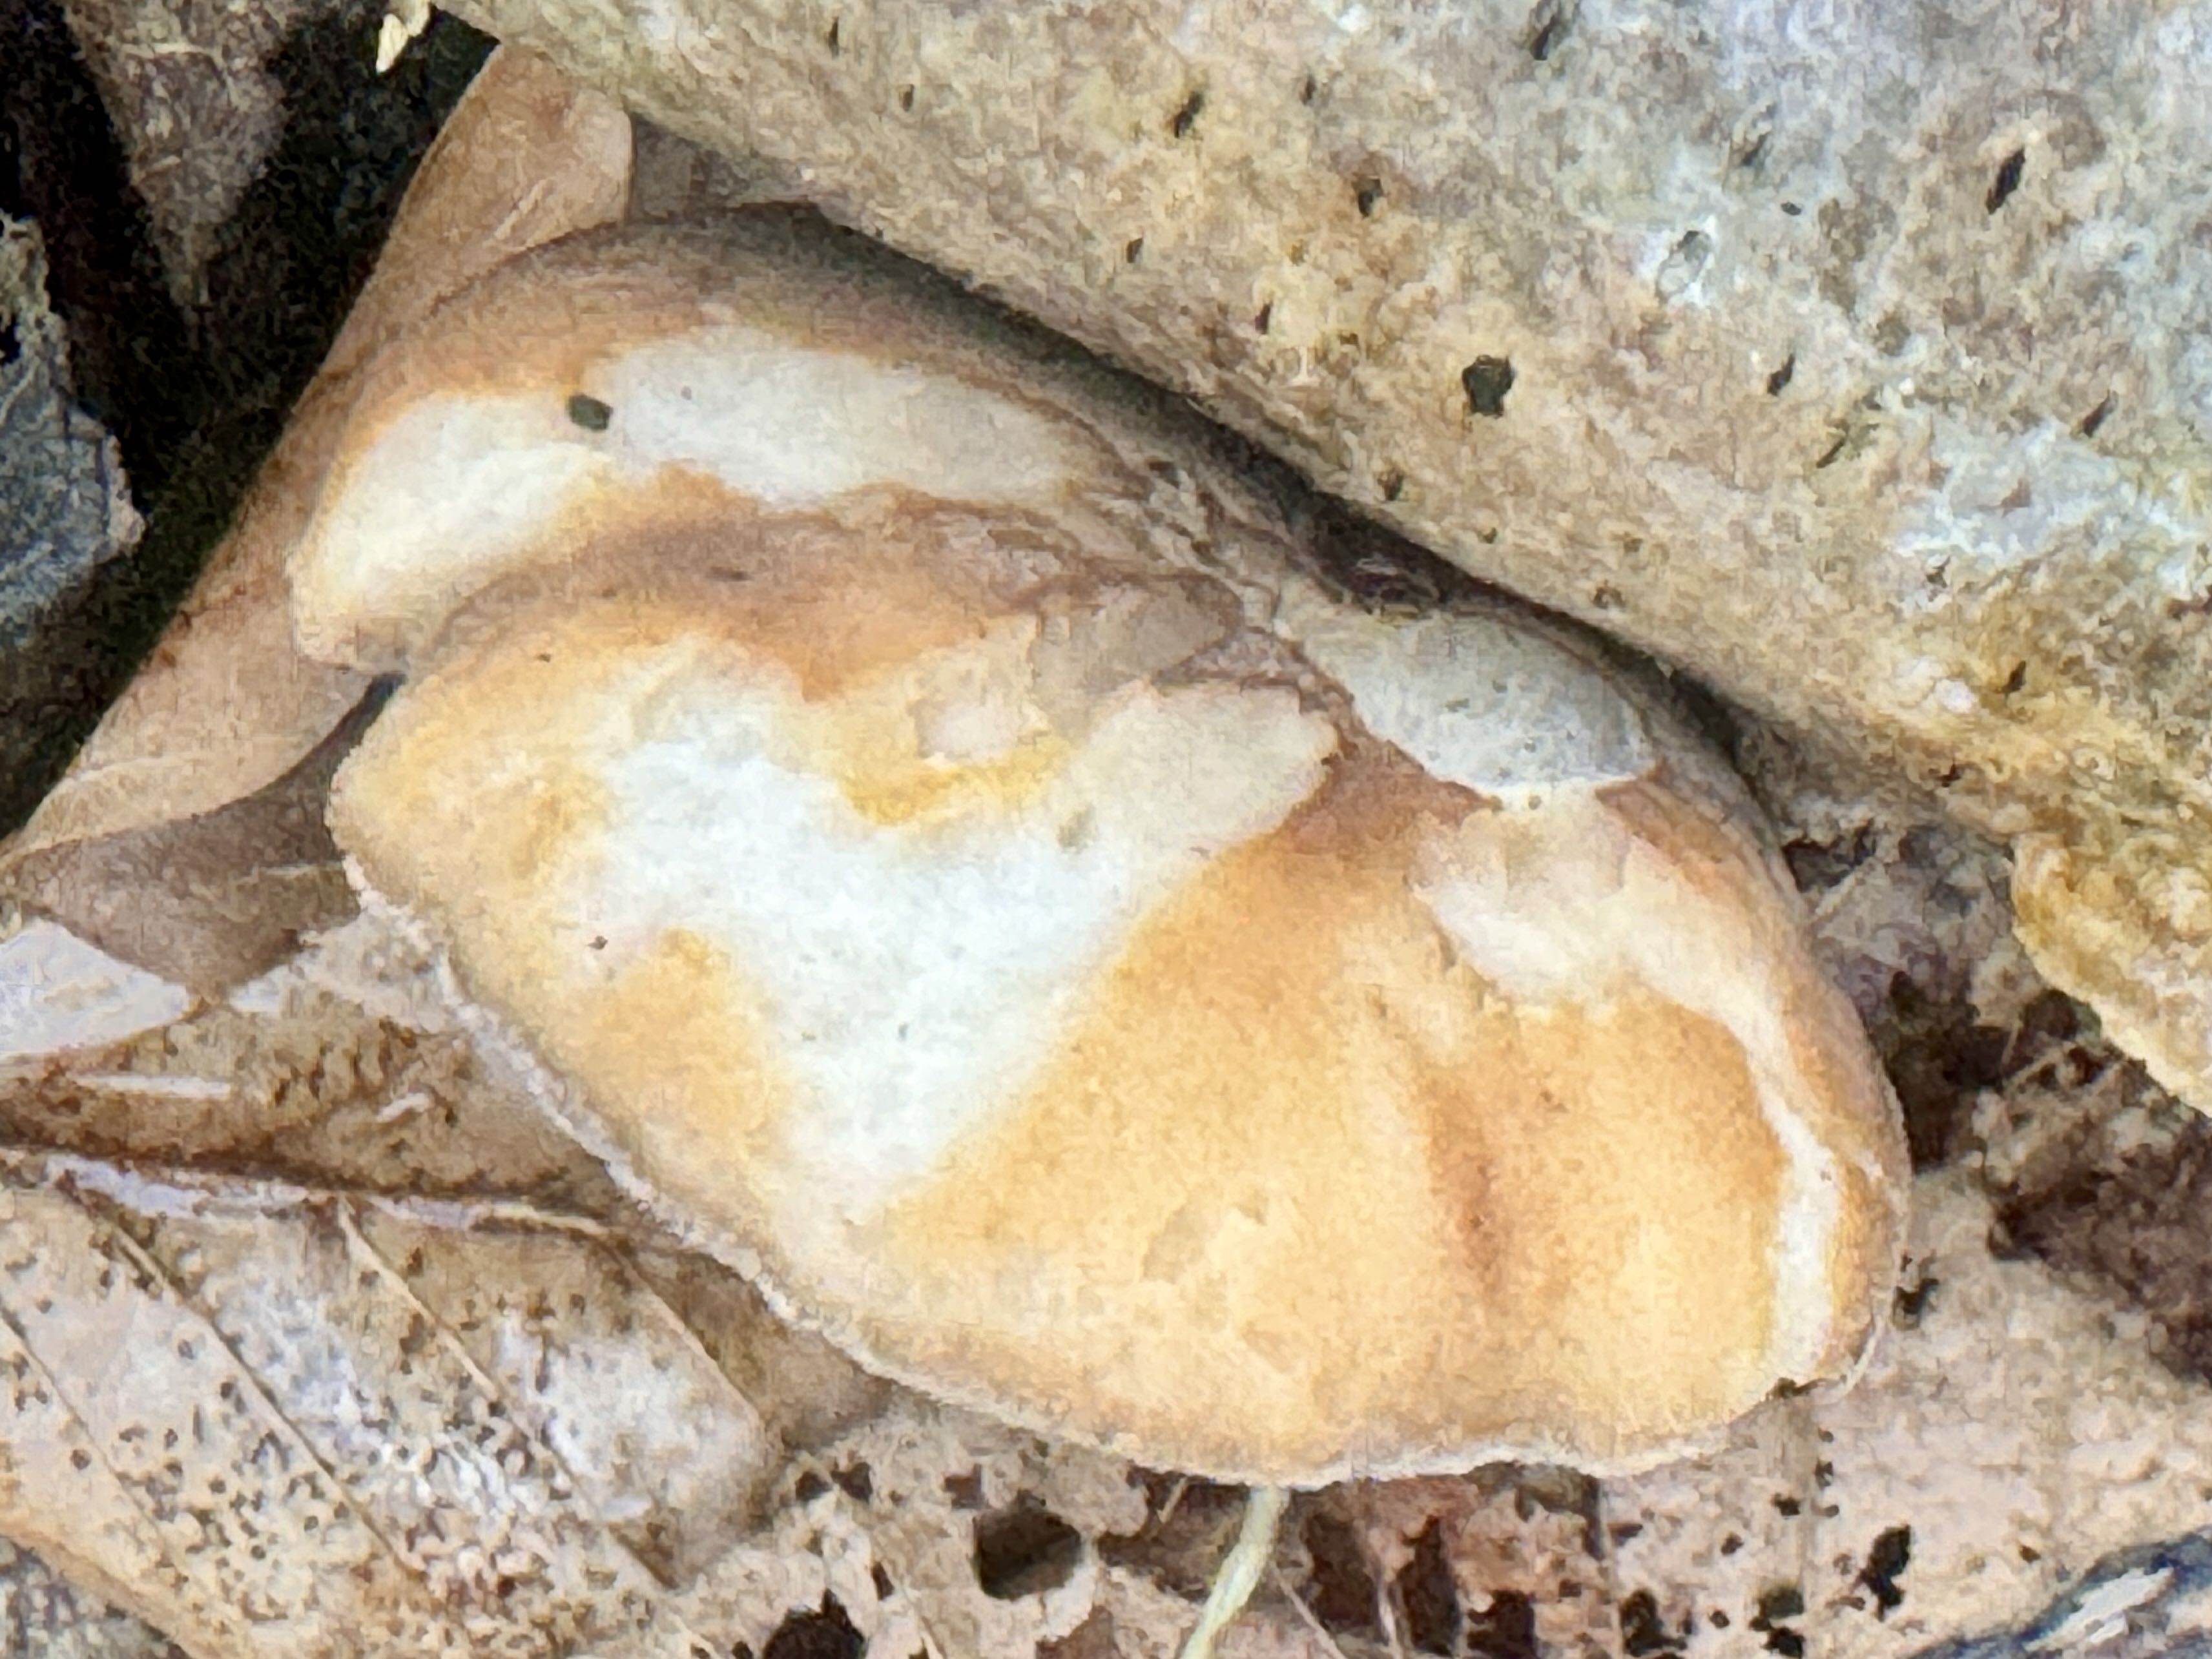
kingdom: Fungi
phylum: Basidiomycota
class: Agaricomycetes
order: Polyporales
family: Polyporaceae
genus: Lentinus
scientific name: Lentinus brumalis
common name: vinter-stilkporesvamp
